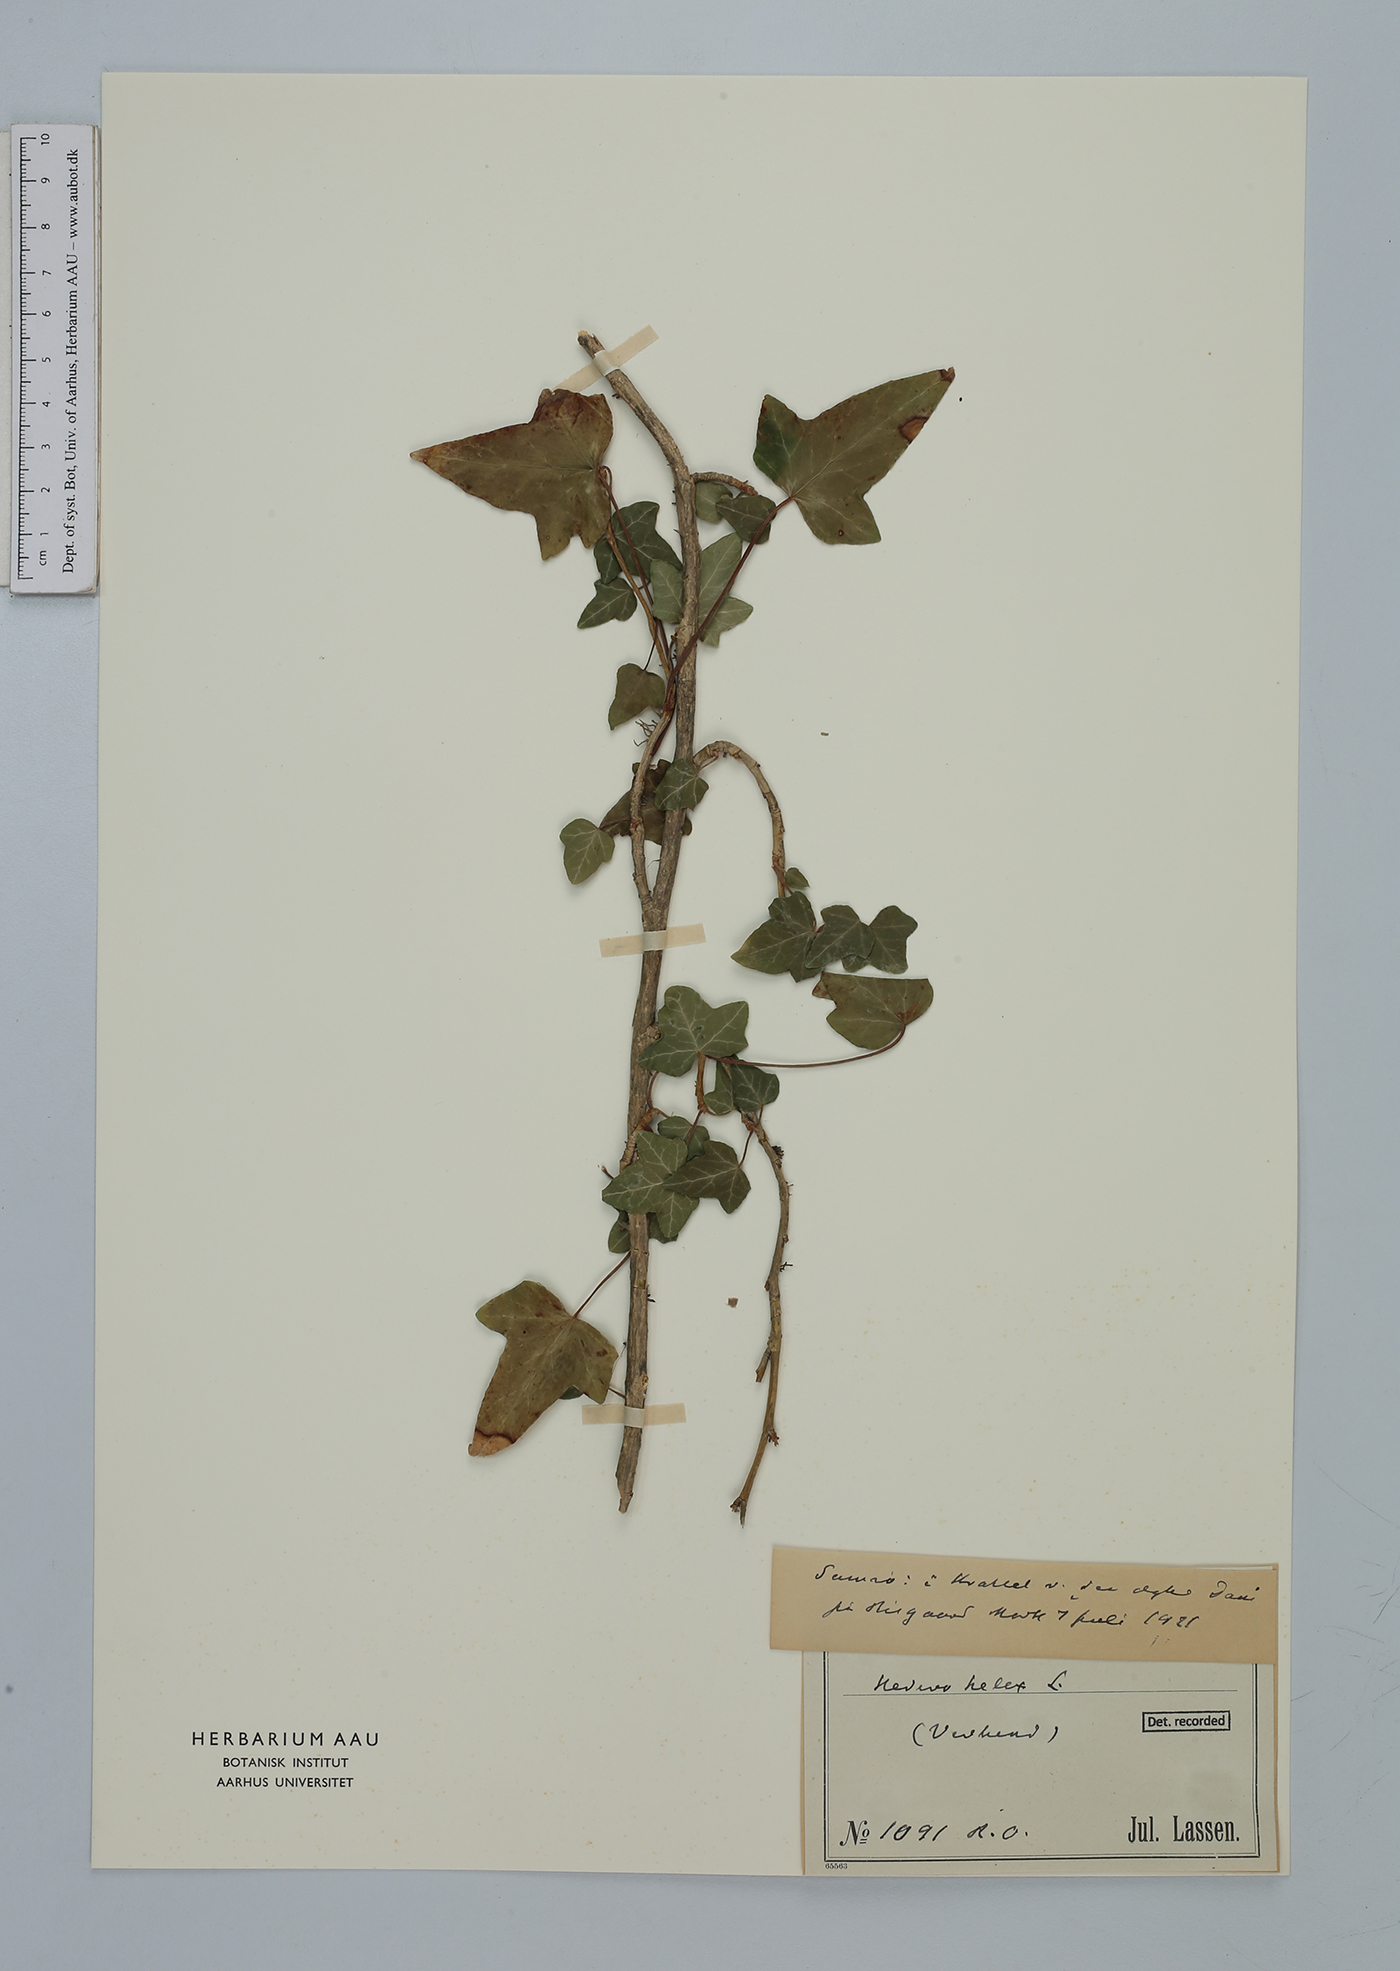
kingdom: Plantae
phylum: Tracheophyta
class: Magnoliopsida
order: Apiales
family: Araliaceae
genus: Hedera
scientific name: Hedera helix
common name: Ivy
